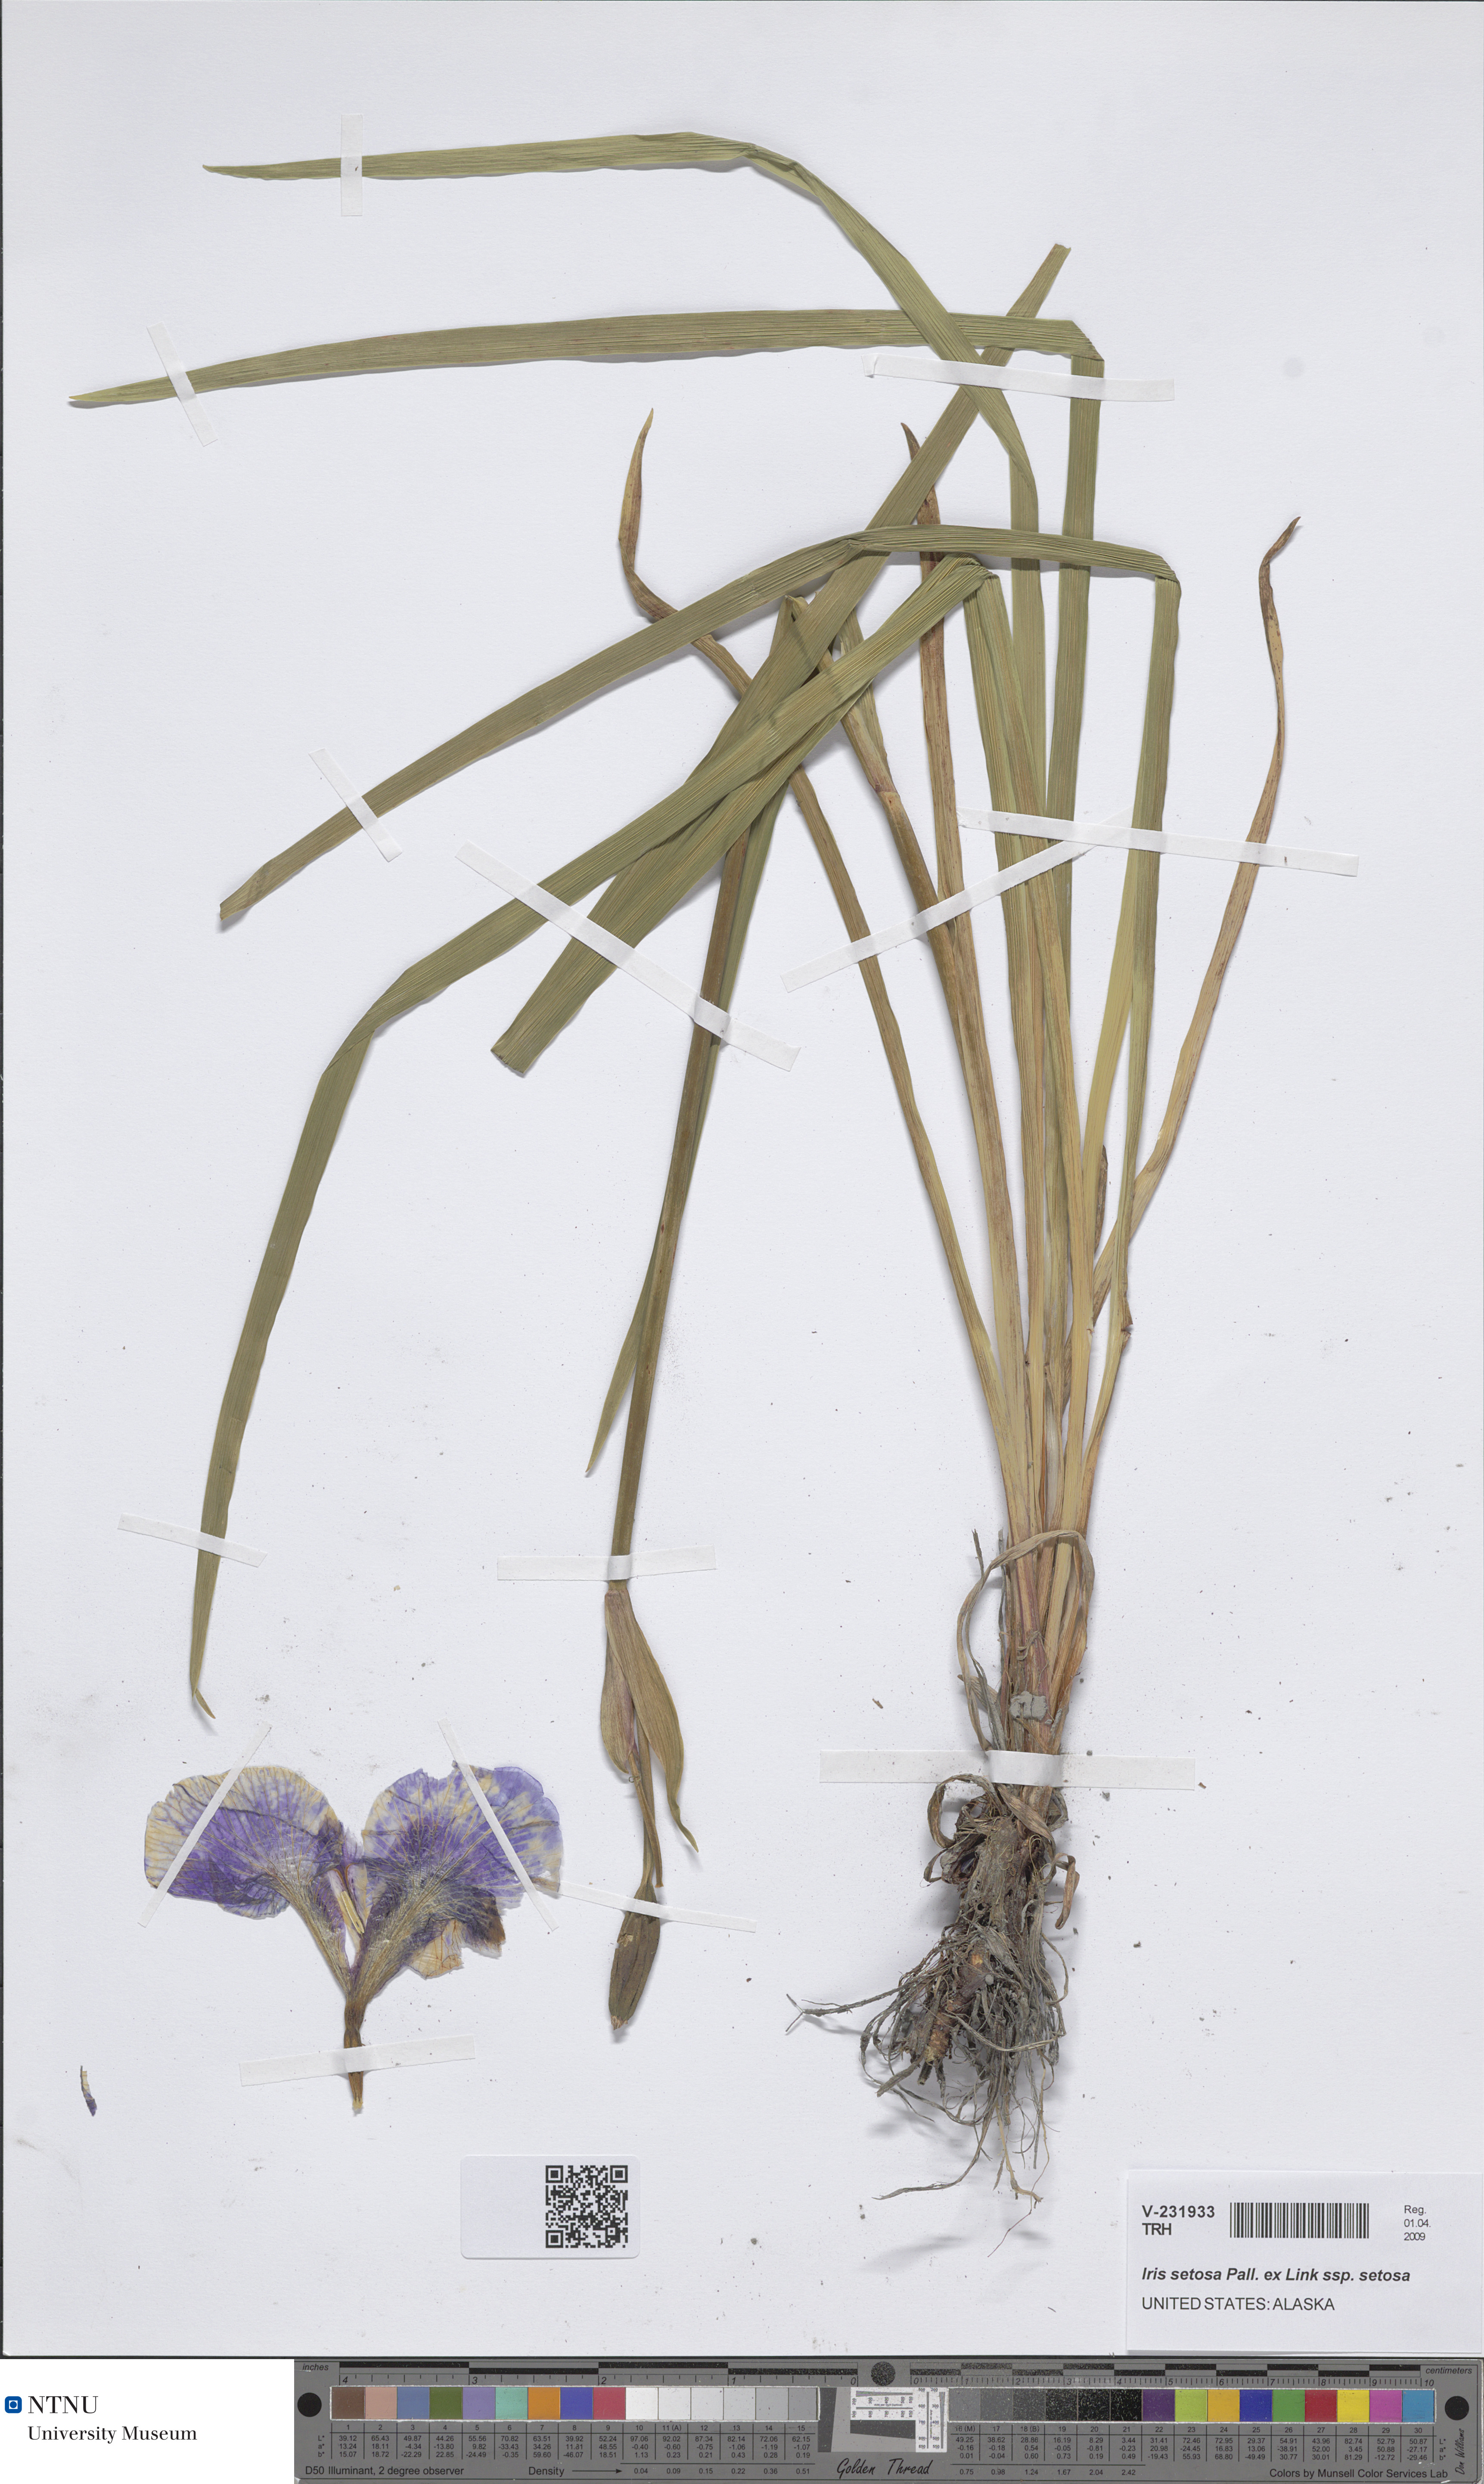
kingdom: Plantae
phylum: Tracheophyta
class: Liliopsida
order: Asparagales
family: Iridaceae
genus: Iris
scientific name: Iris setosa
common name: Arctic blue flag
